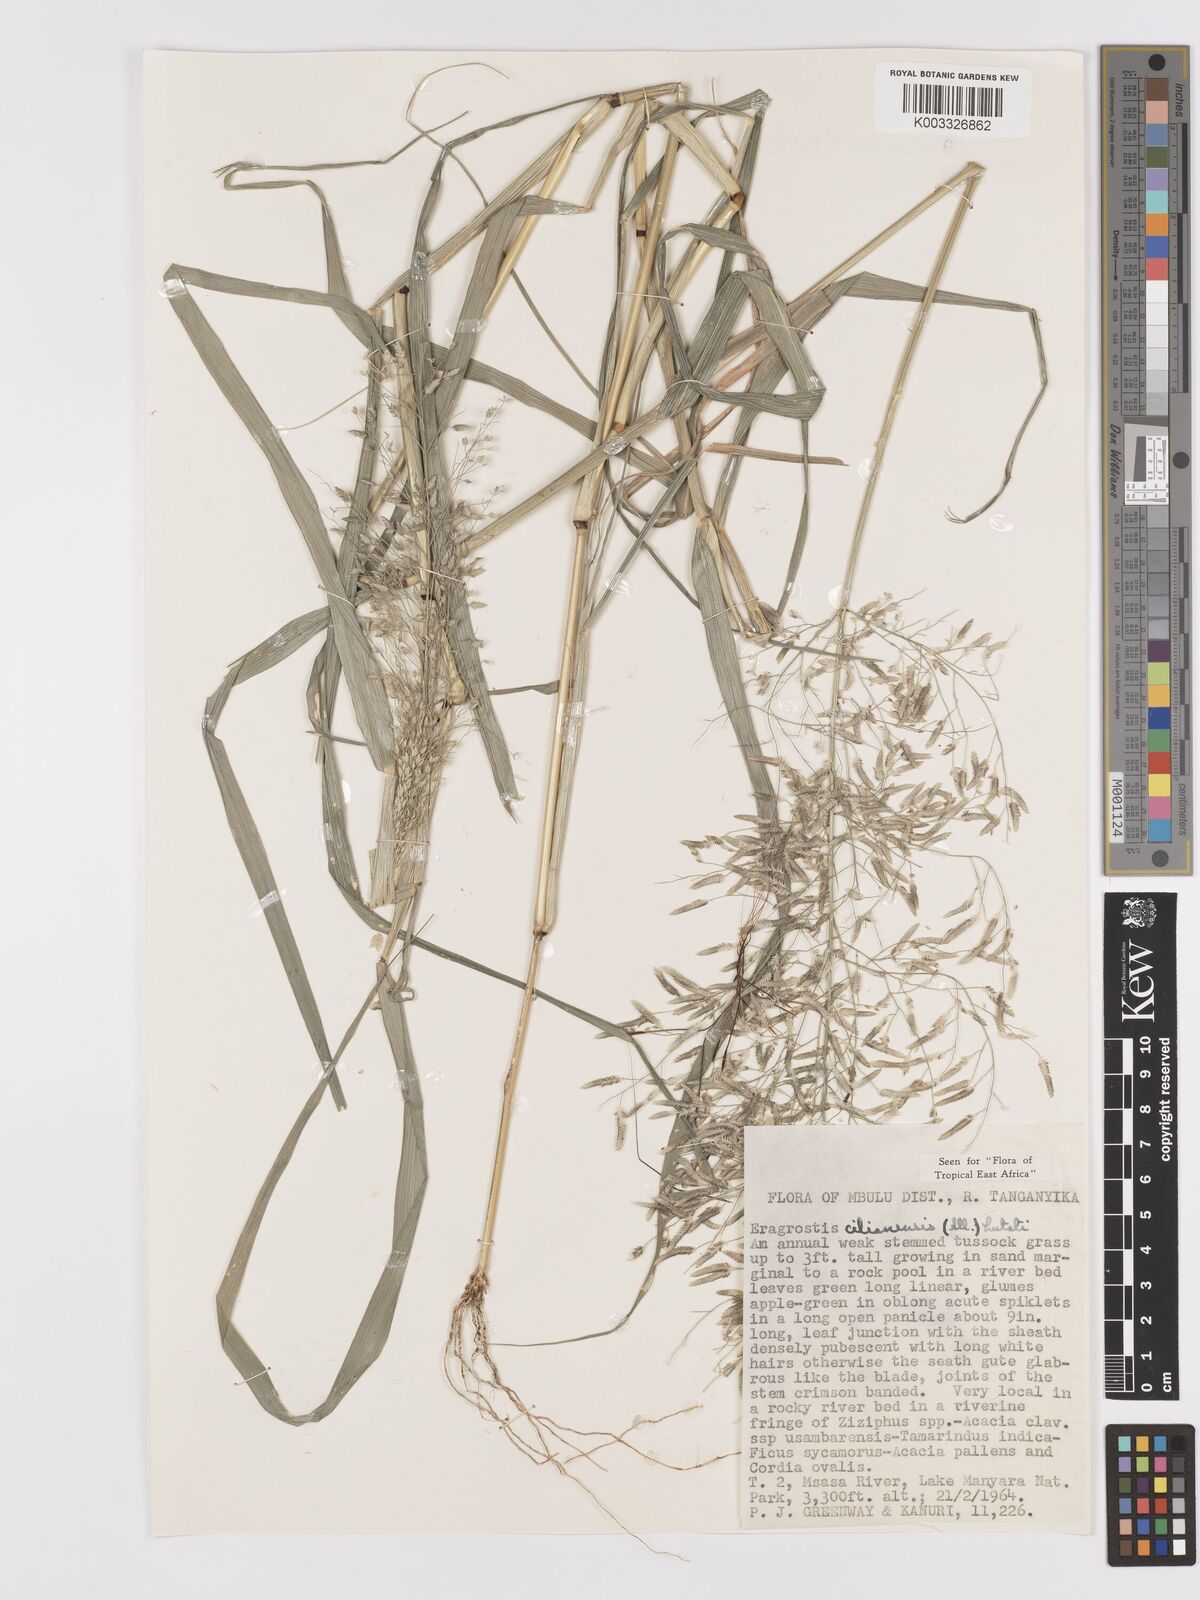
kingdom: Plantae
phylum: Tracheophyta
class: Liliopsida
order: Poales
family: Poaceae
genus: Eragrostis
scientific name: Eragrostis cilianensis
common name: Stinkgrass
